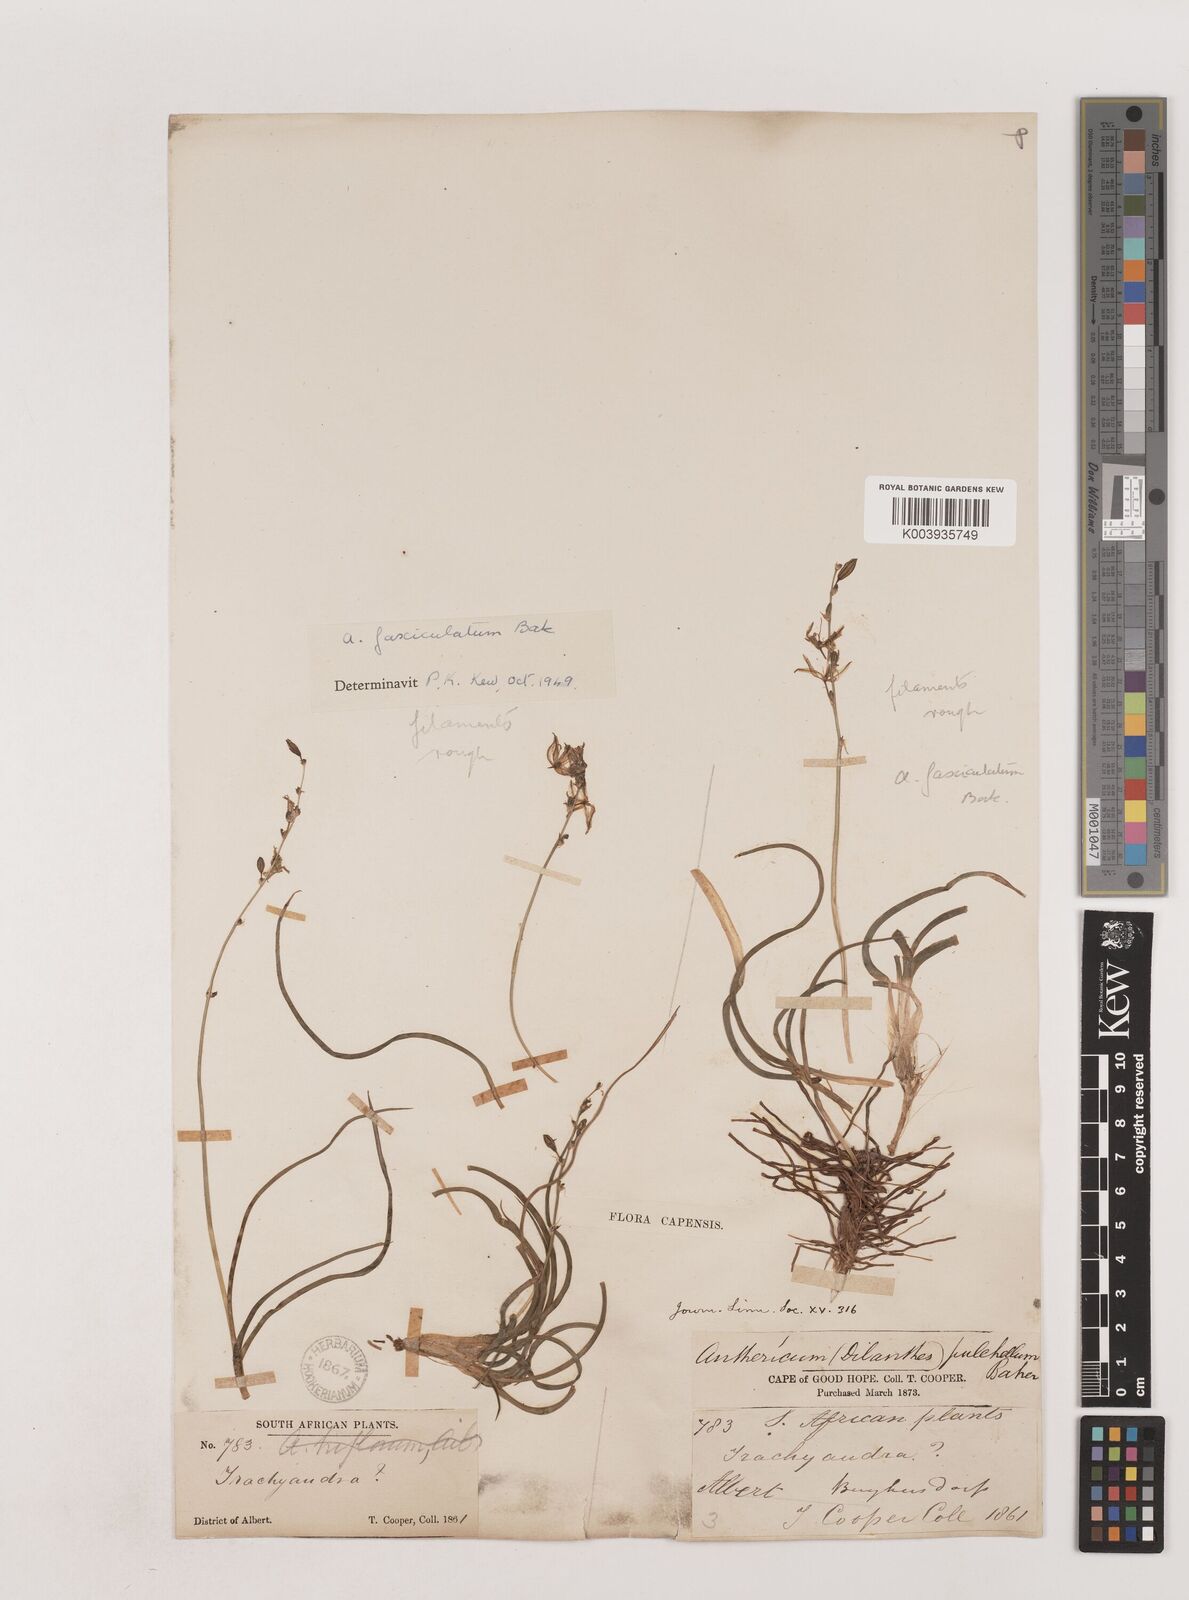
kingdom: Plantae
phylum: Tracheophyta
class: Liliopsida
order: Asparagales
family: Asparagaceae
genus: Chlorophytum
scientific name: Chlorophytum fasciculatum
